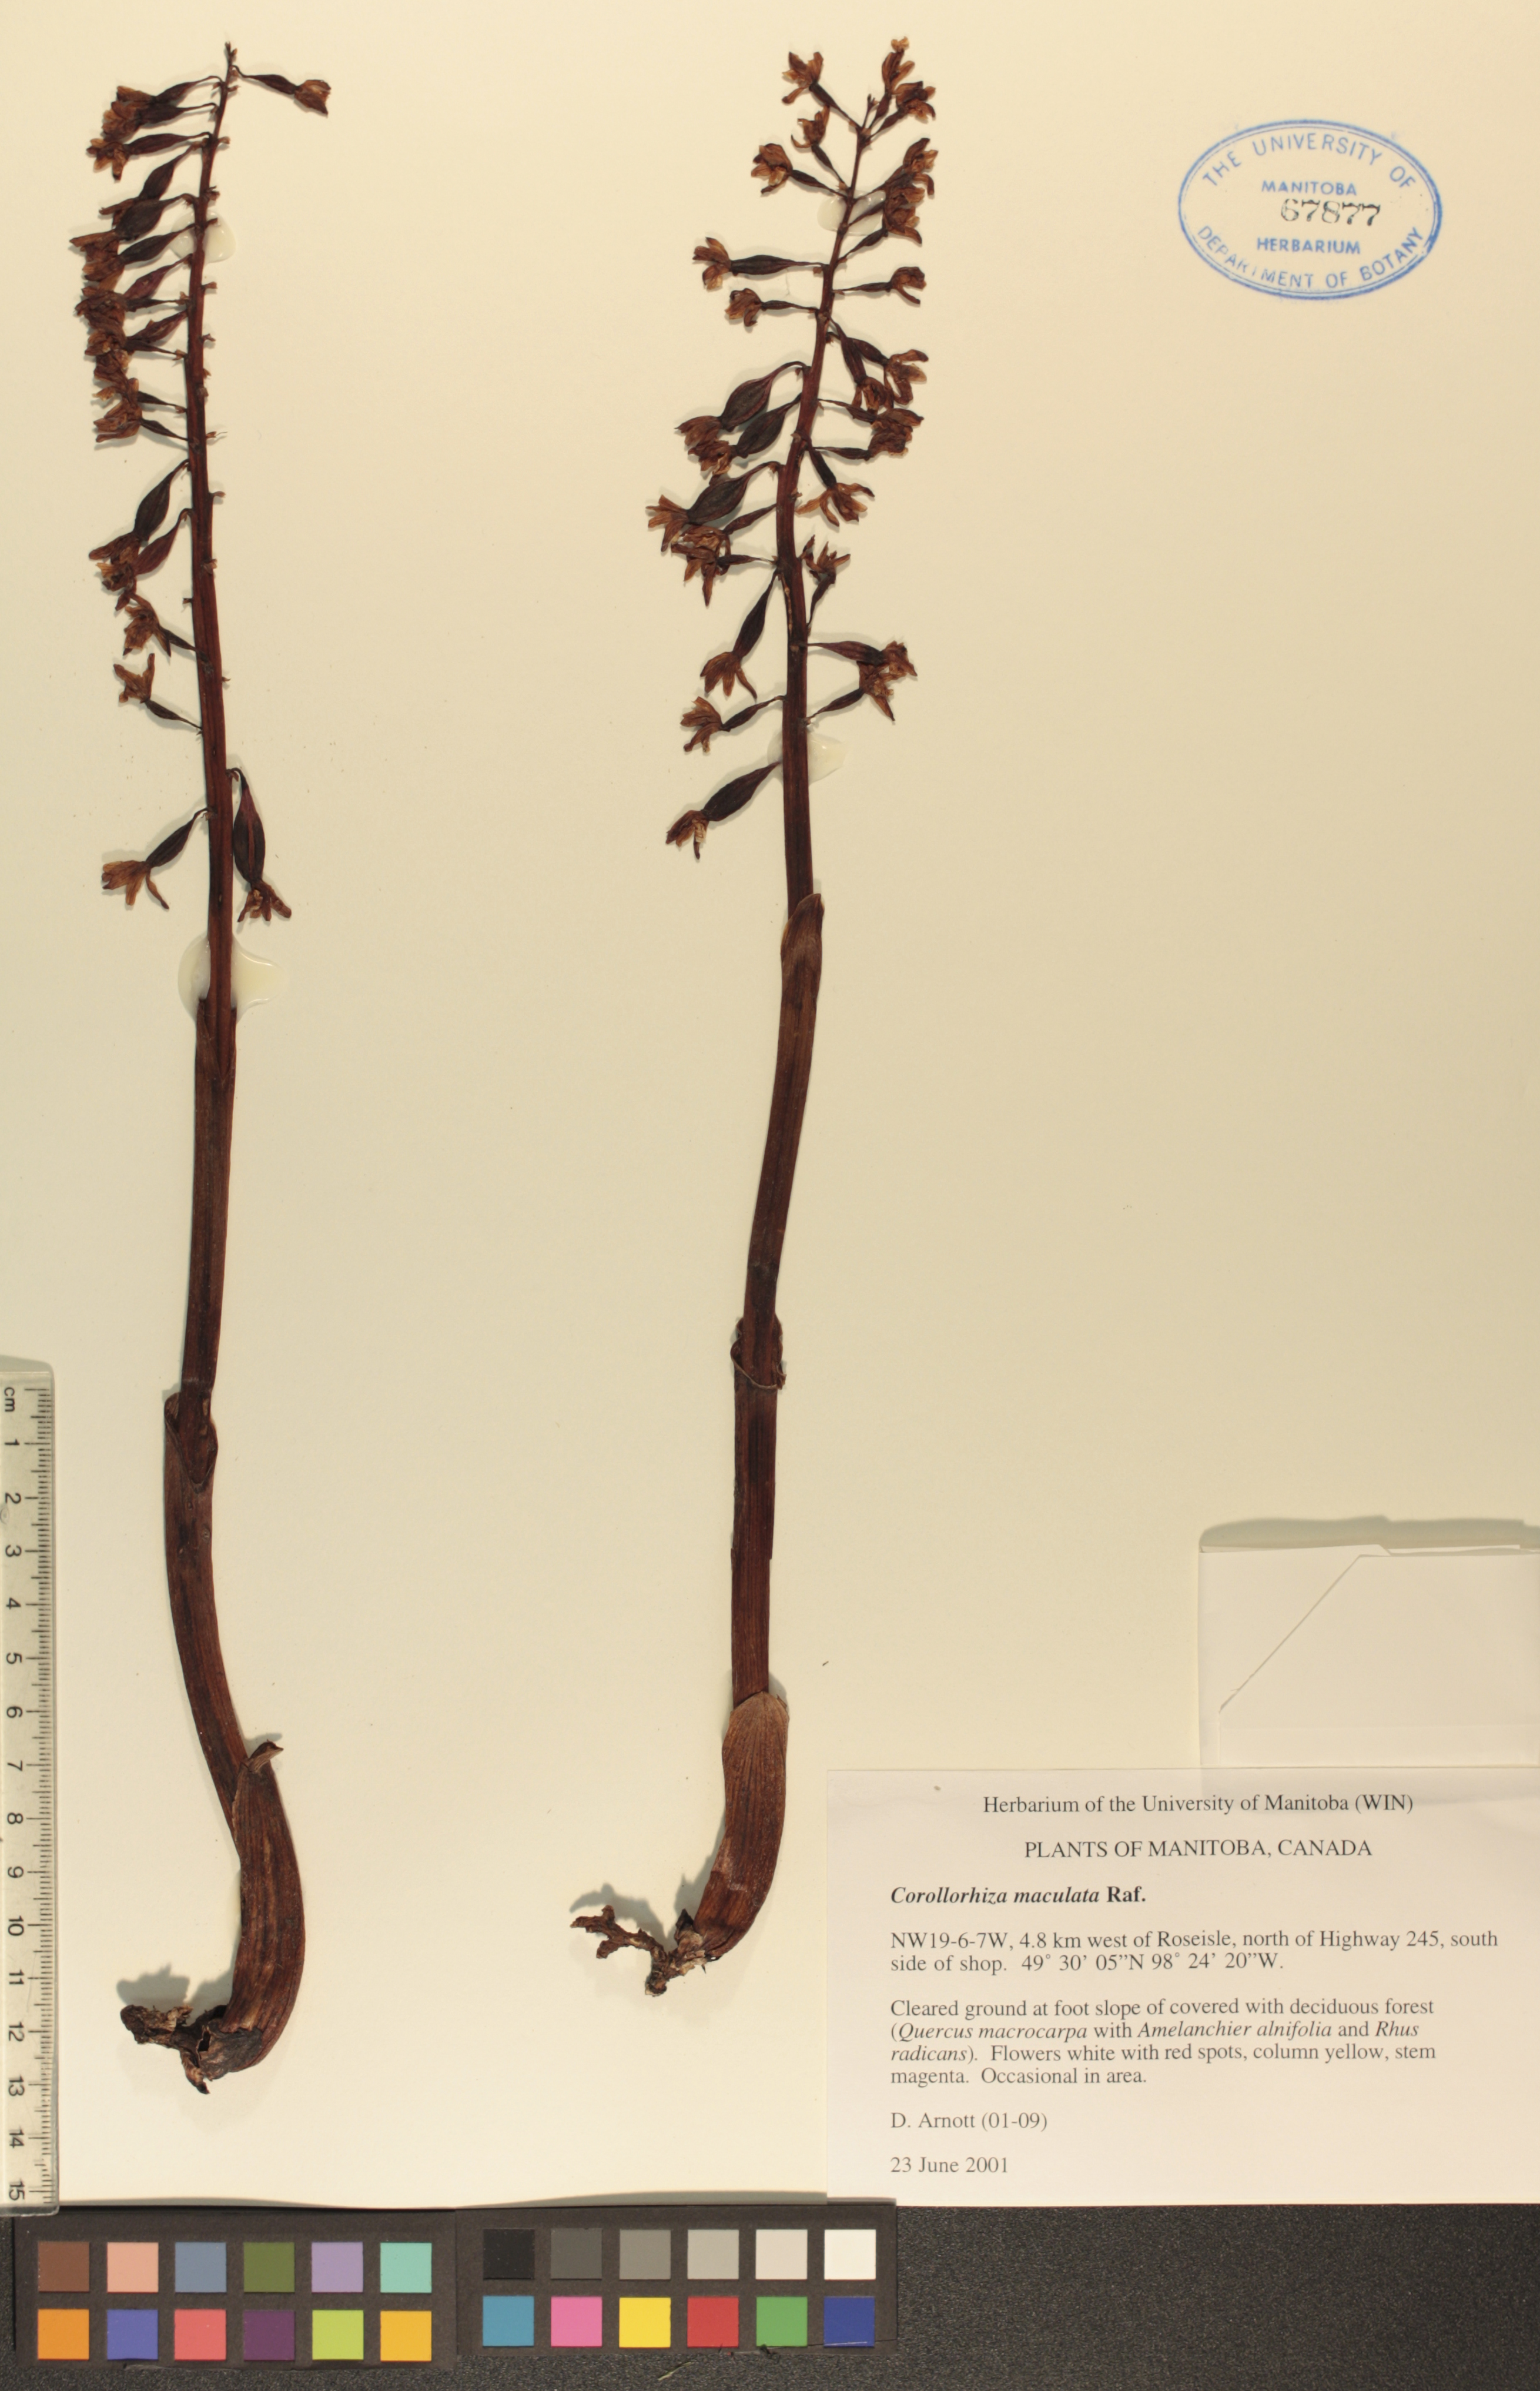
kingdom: Plantae
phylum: Tracheophyta
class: Liliopsida
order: Asparagales
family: Orchidaceae
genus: Corallorhiza
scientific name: Corallorhiza maculata
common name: Spotted coralroot
